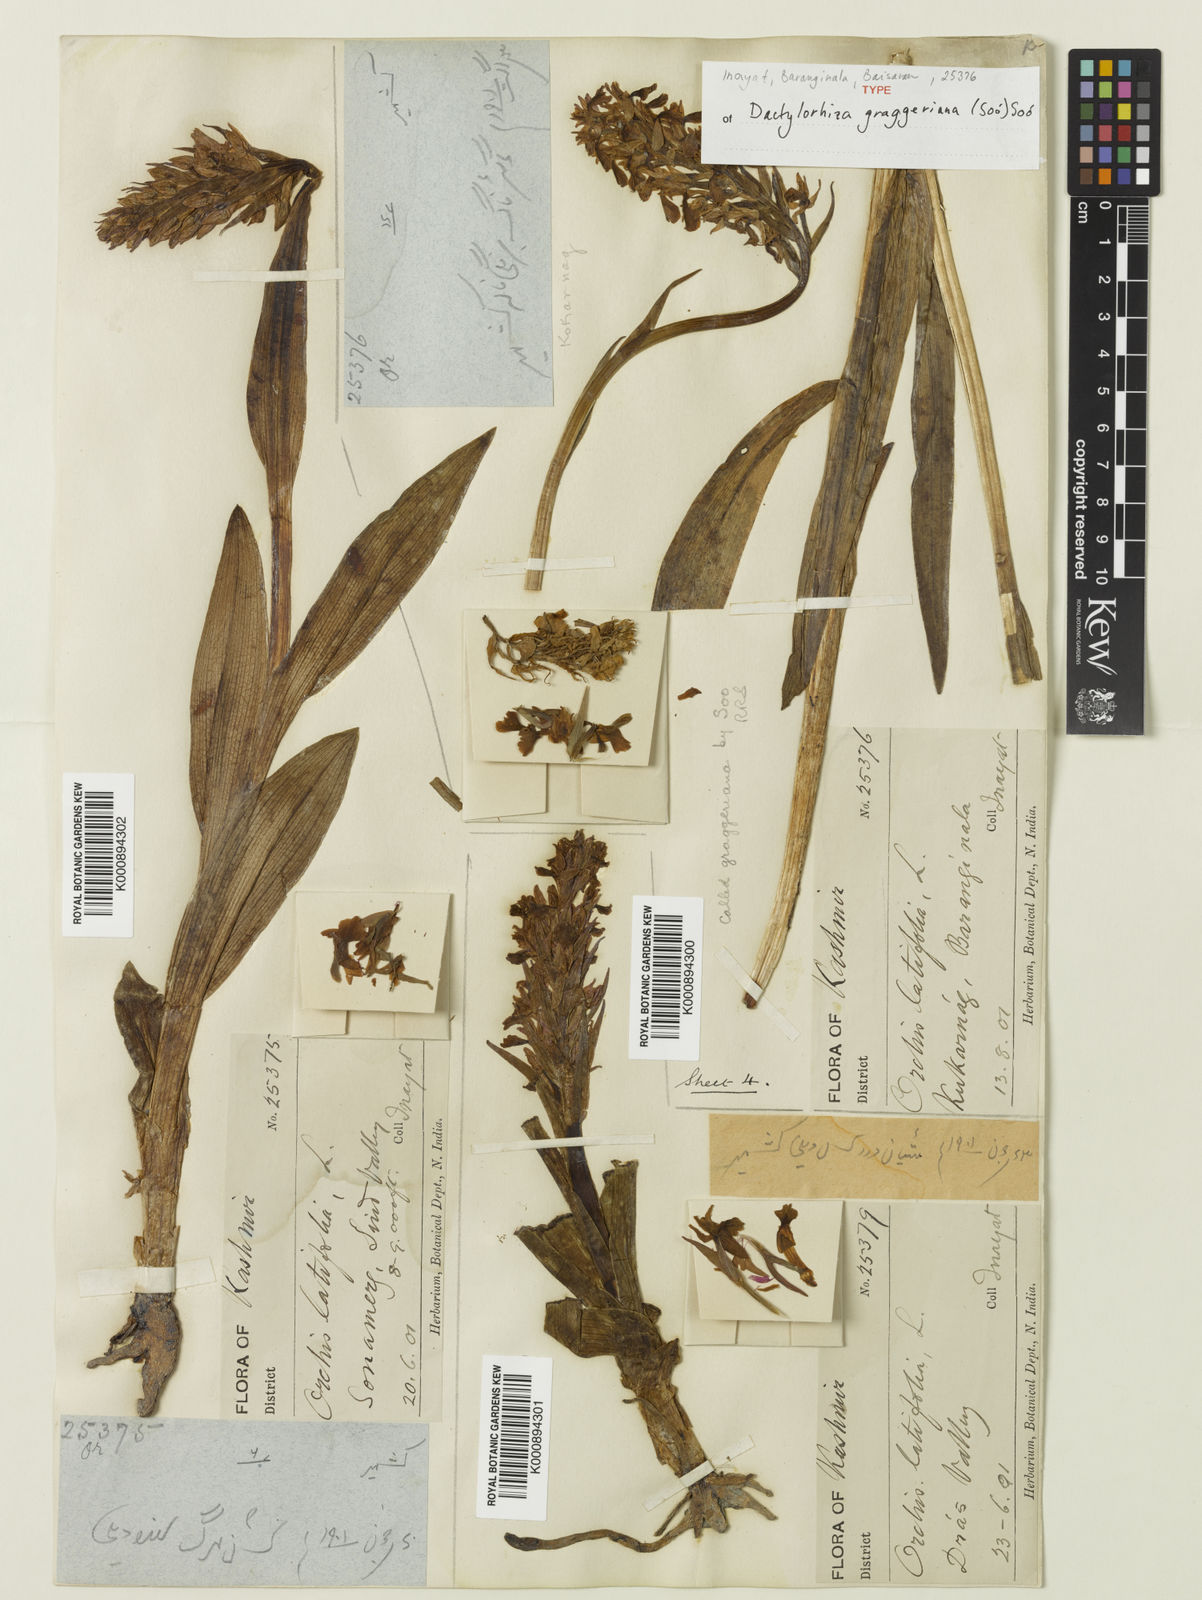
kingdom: Plantae
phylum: Tracheophyta
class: Liliopsida
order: Asparagales
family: Orchidaceae
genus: Dactylorhiza
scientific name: Dactylorhiza
